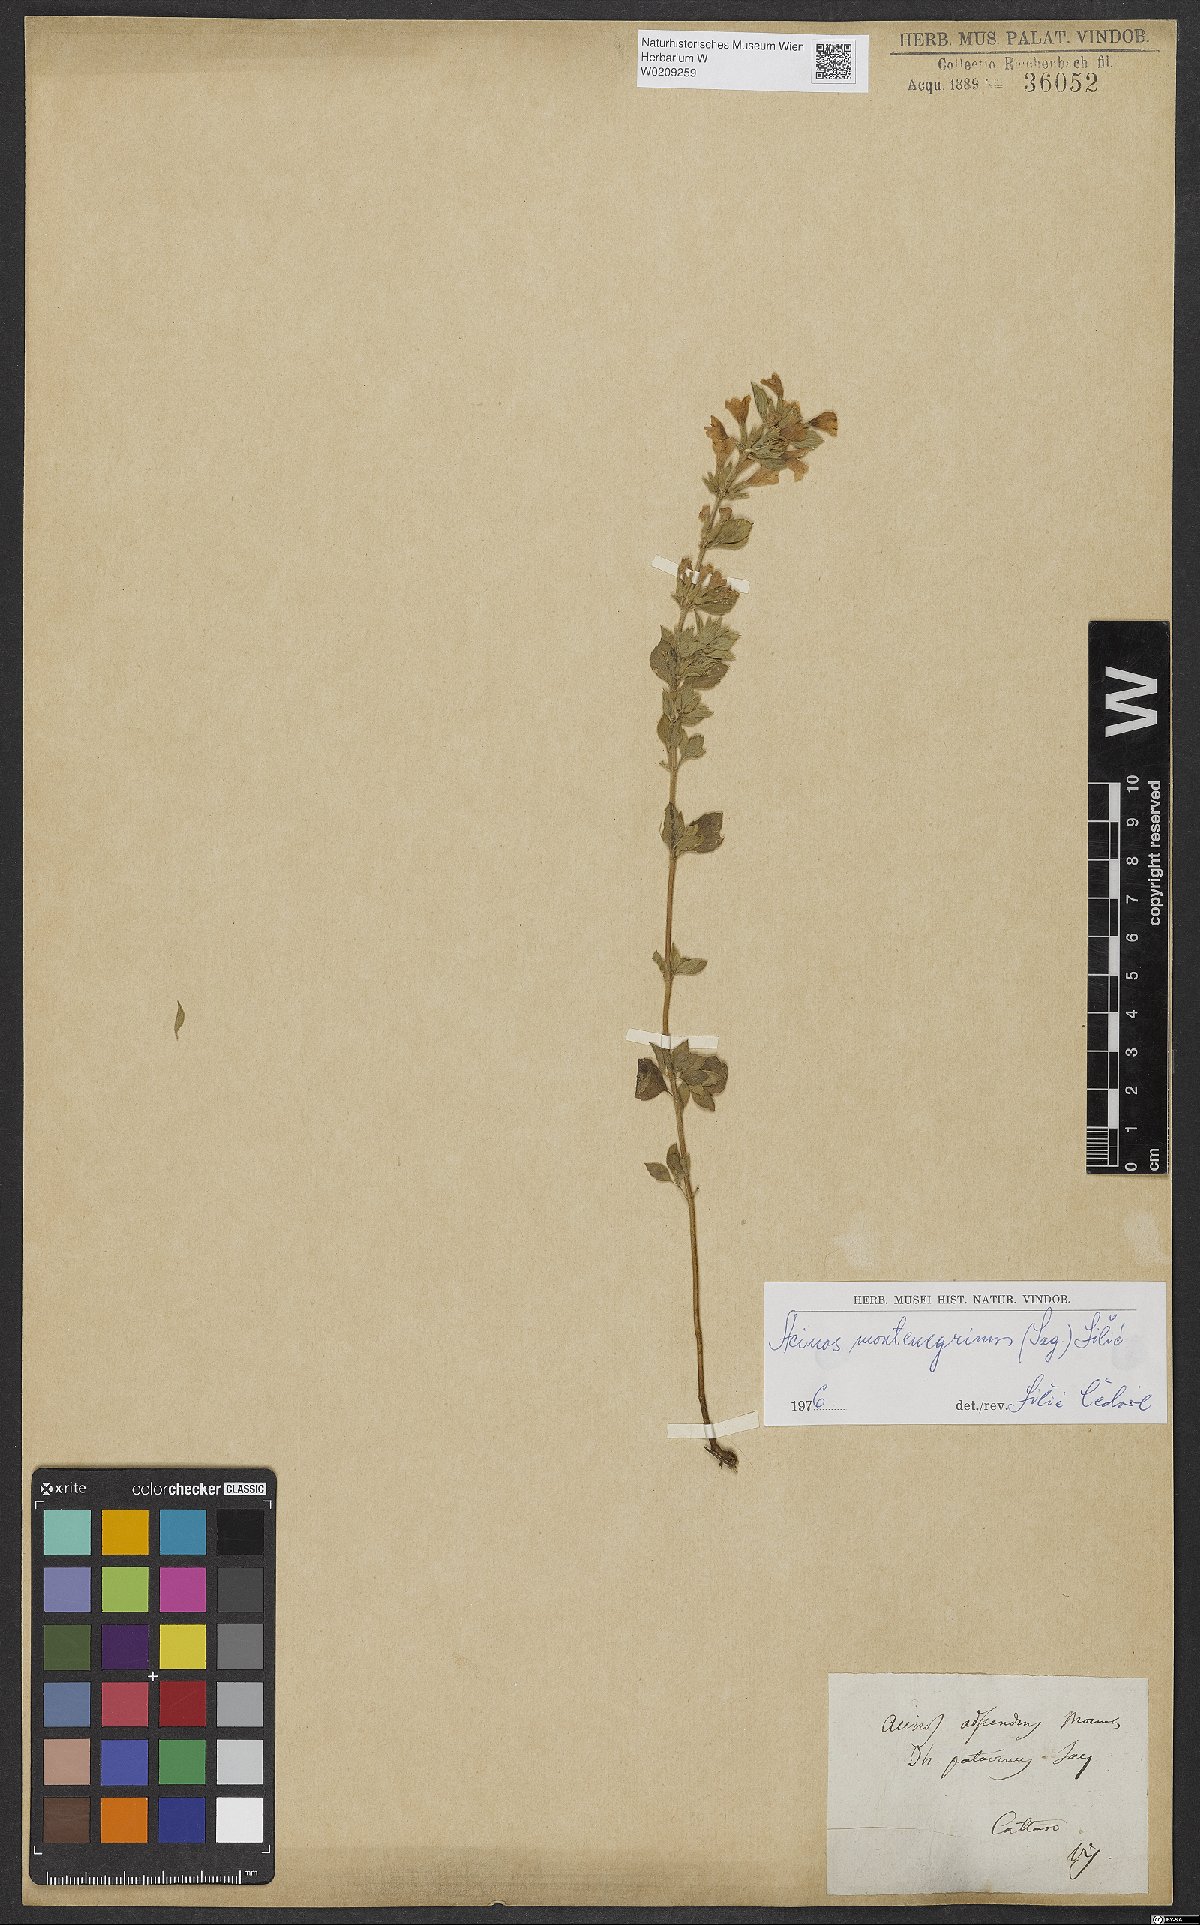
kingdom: Plantae
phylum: Tracheophyta
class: Magnoliopsida
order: Lamiales
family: Lamiaceae
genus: Clinopodium
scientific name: Clinopodium alpinum
